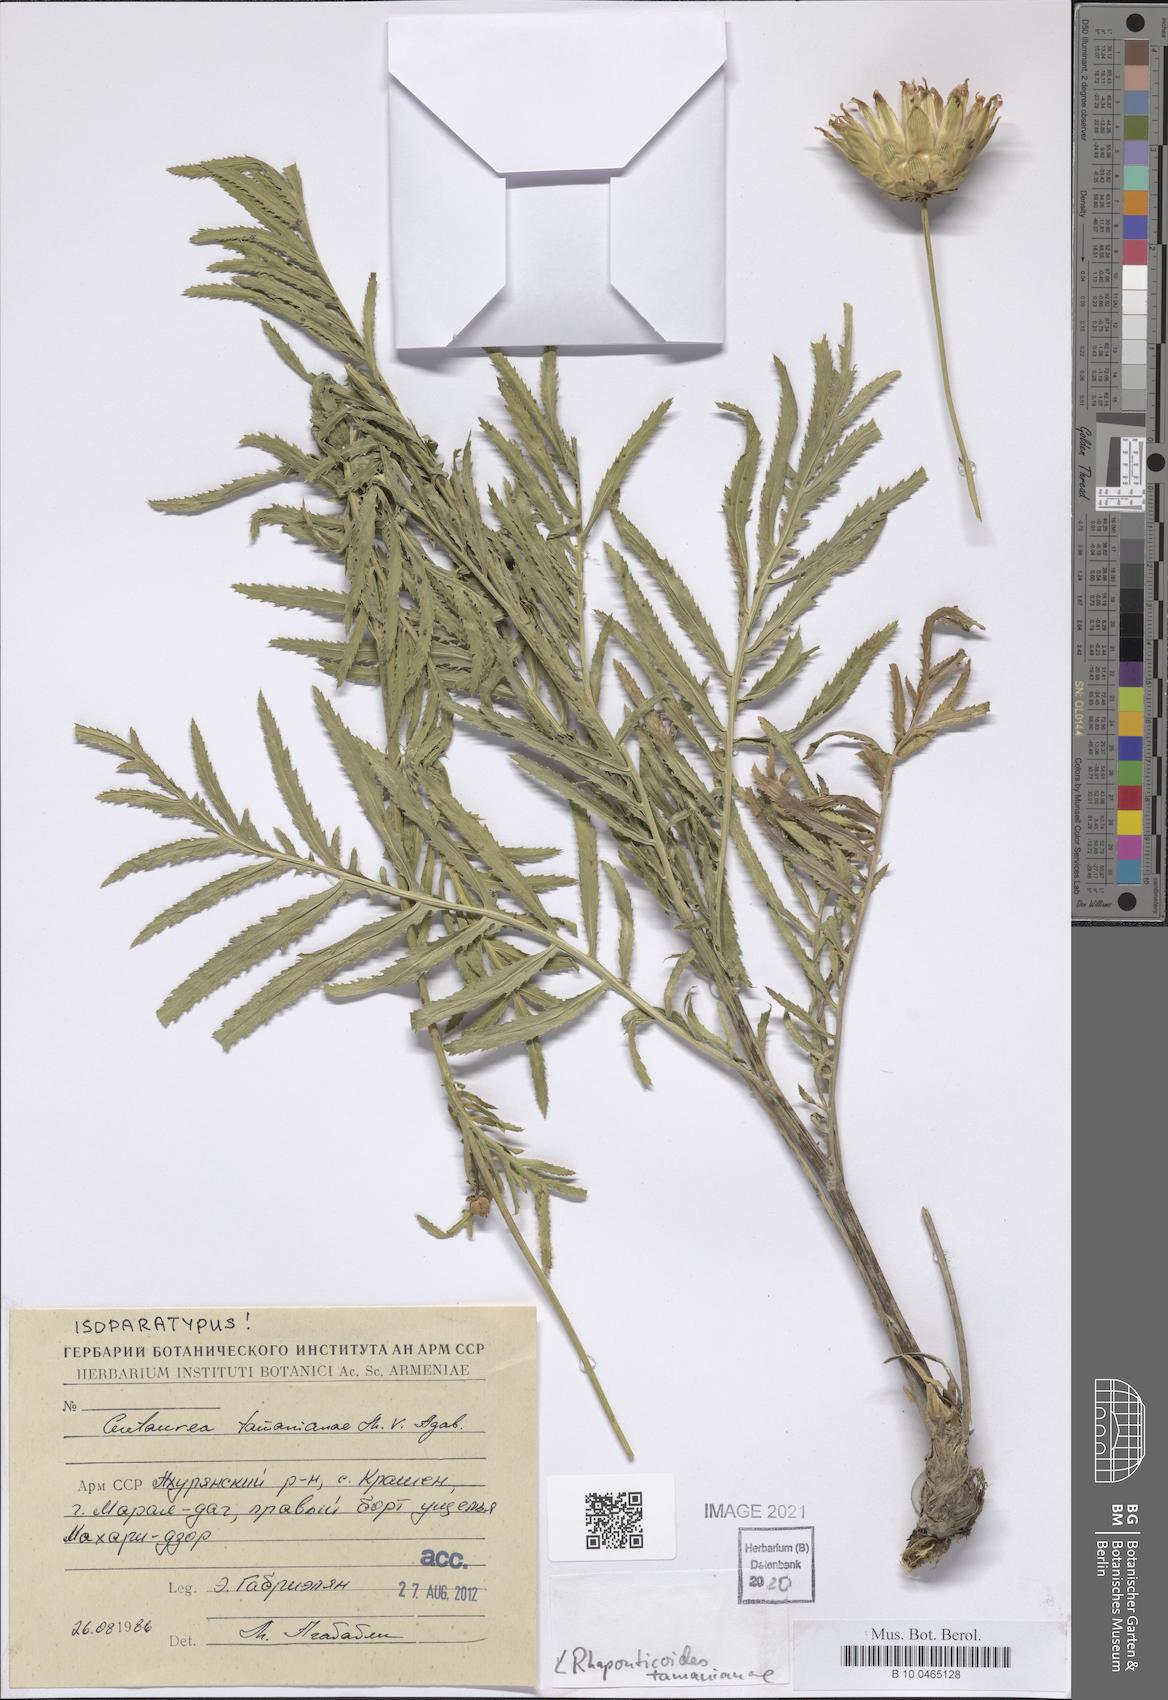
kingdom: Plantae
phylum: Tracheophyta
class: Magnoliopsida
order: Asterales
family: Asteraceae
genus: Rhaponticoides
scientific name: Rhaponticoides tamanianae
